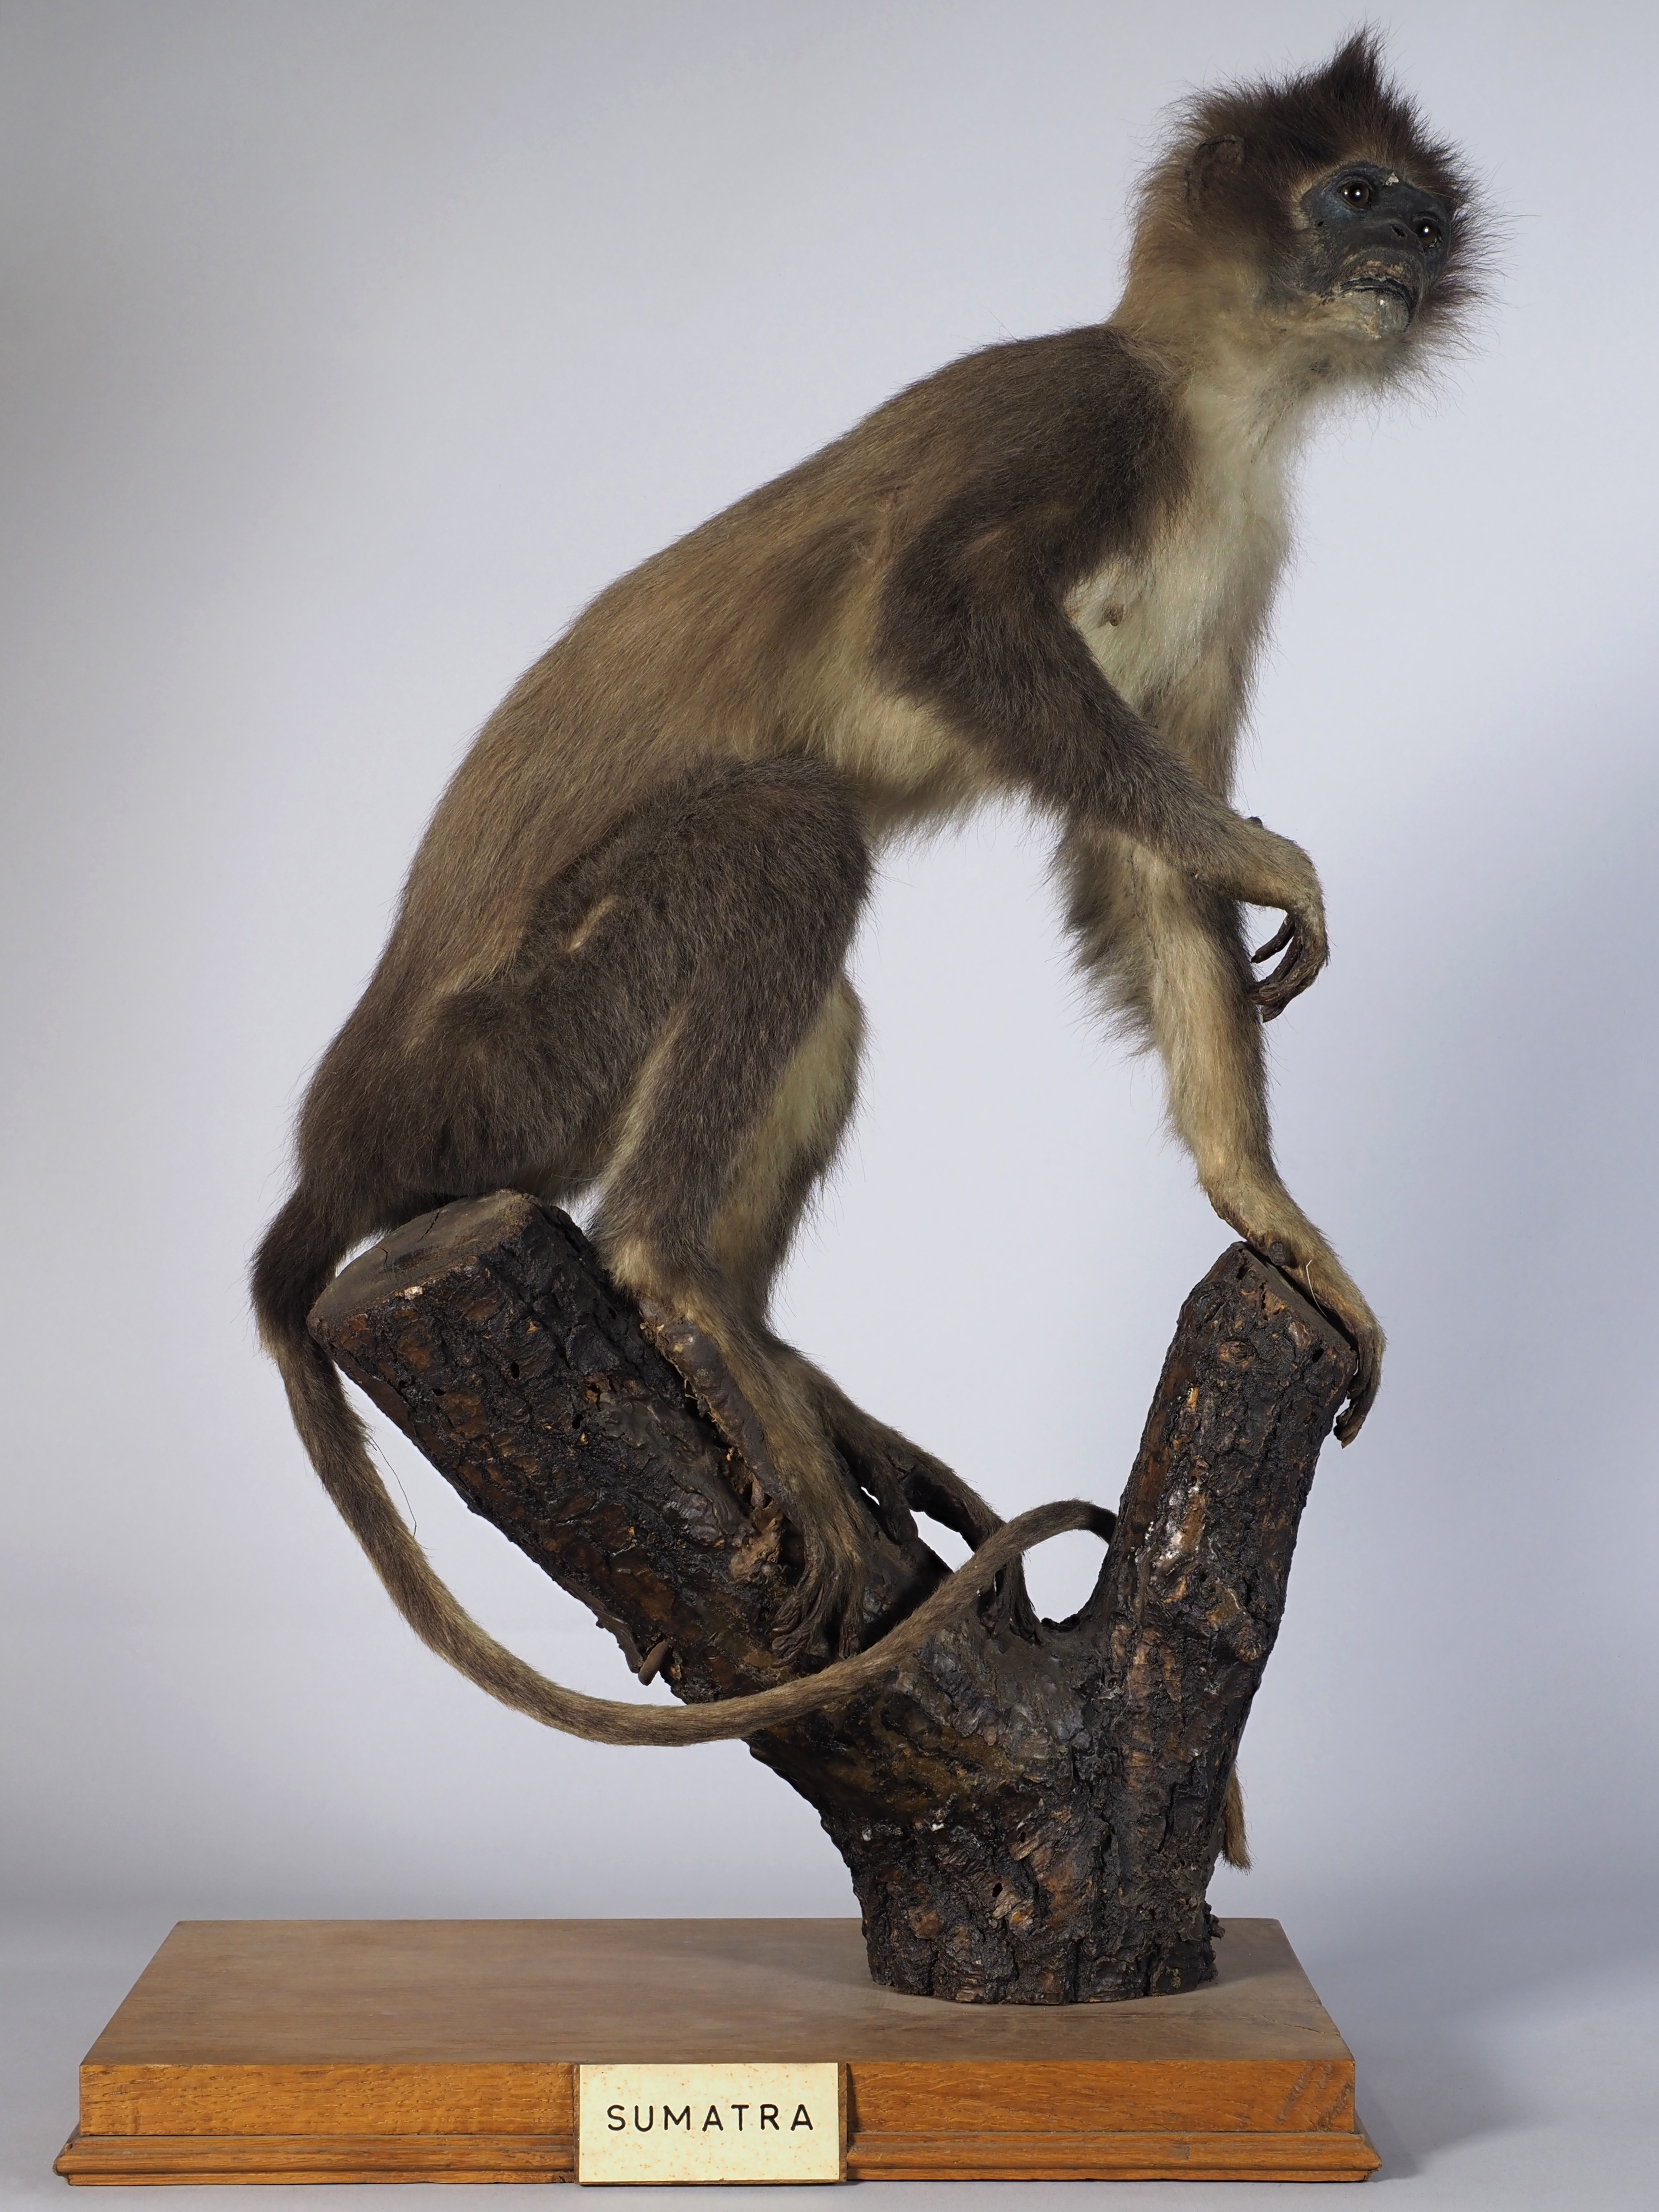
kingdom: Animalia
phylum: Chordata
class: Mammalia
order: Primates
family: Cercopithecidae
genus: Presbytis
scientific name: Presbytis mitrata
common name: Mitered langur
